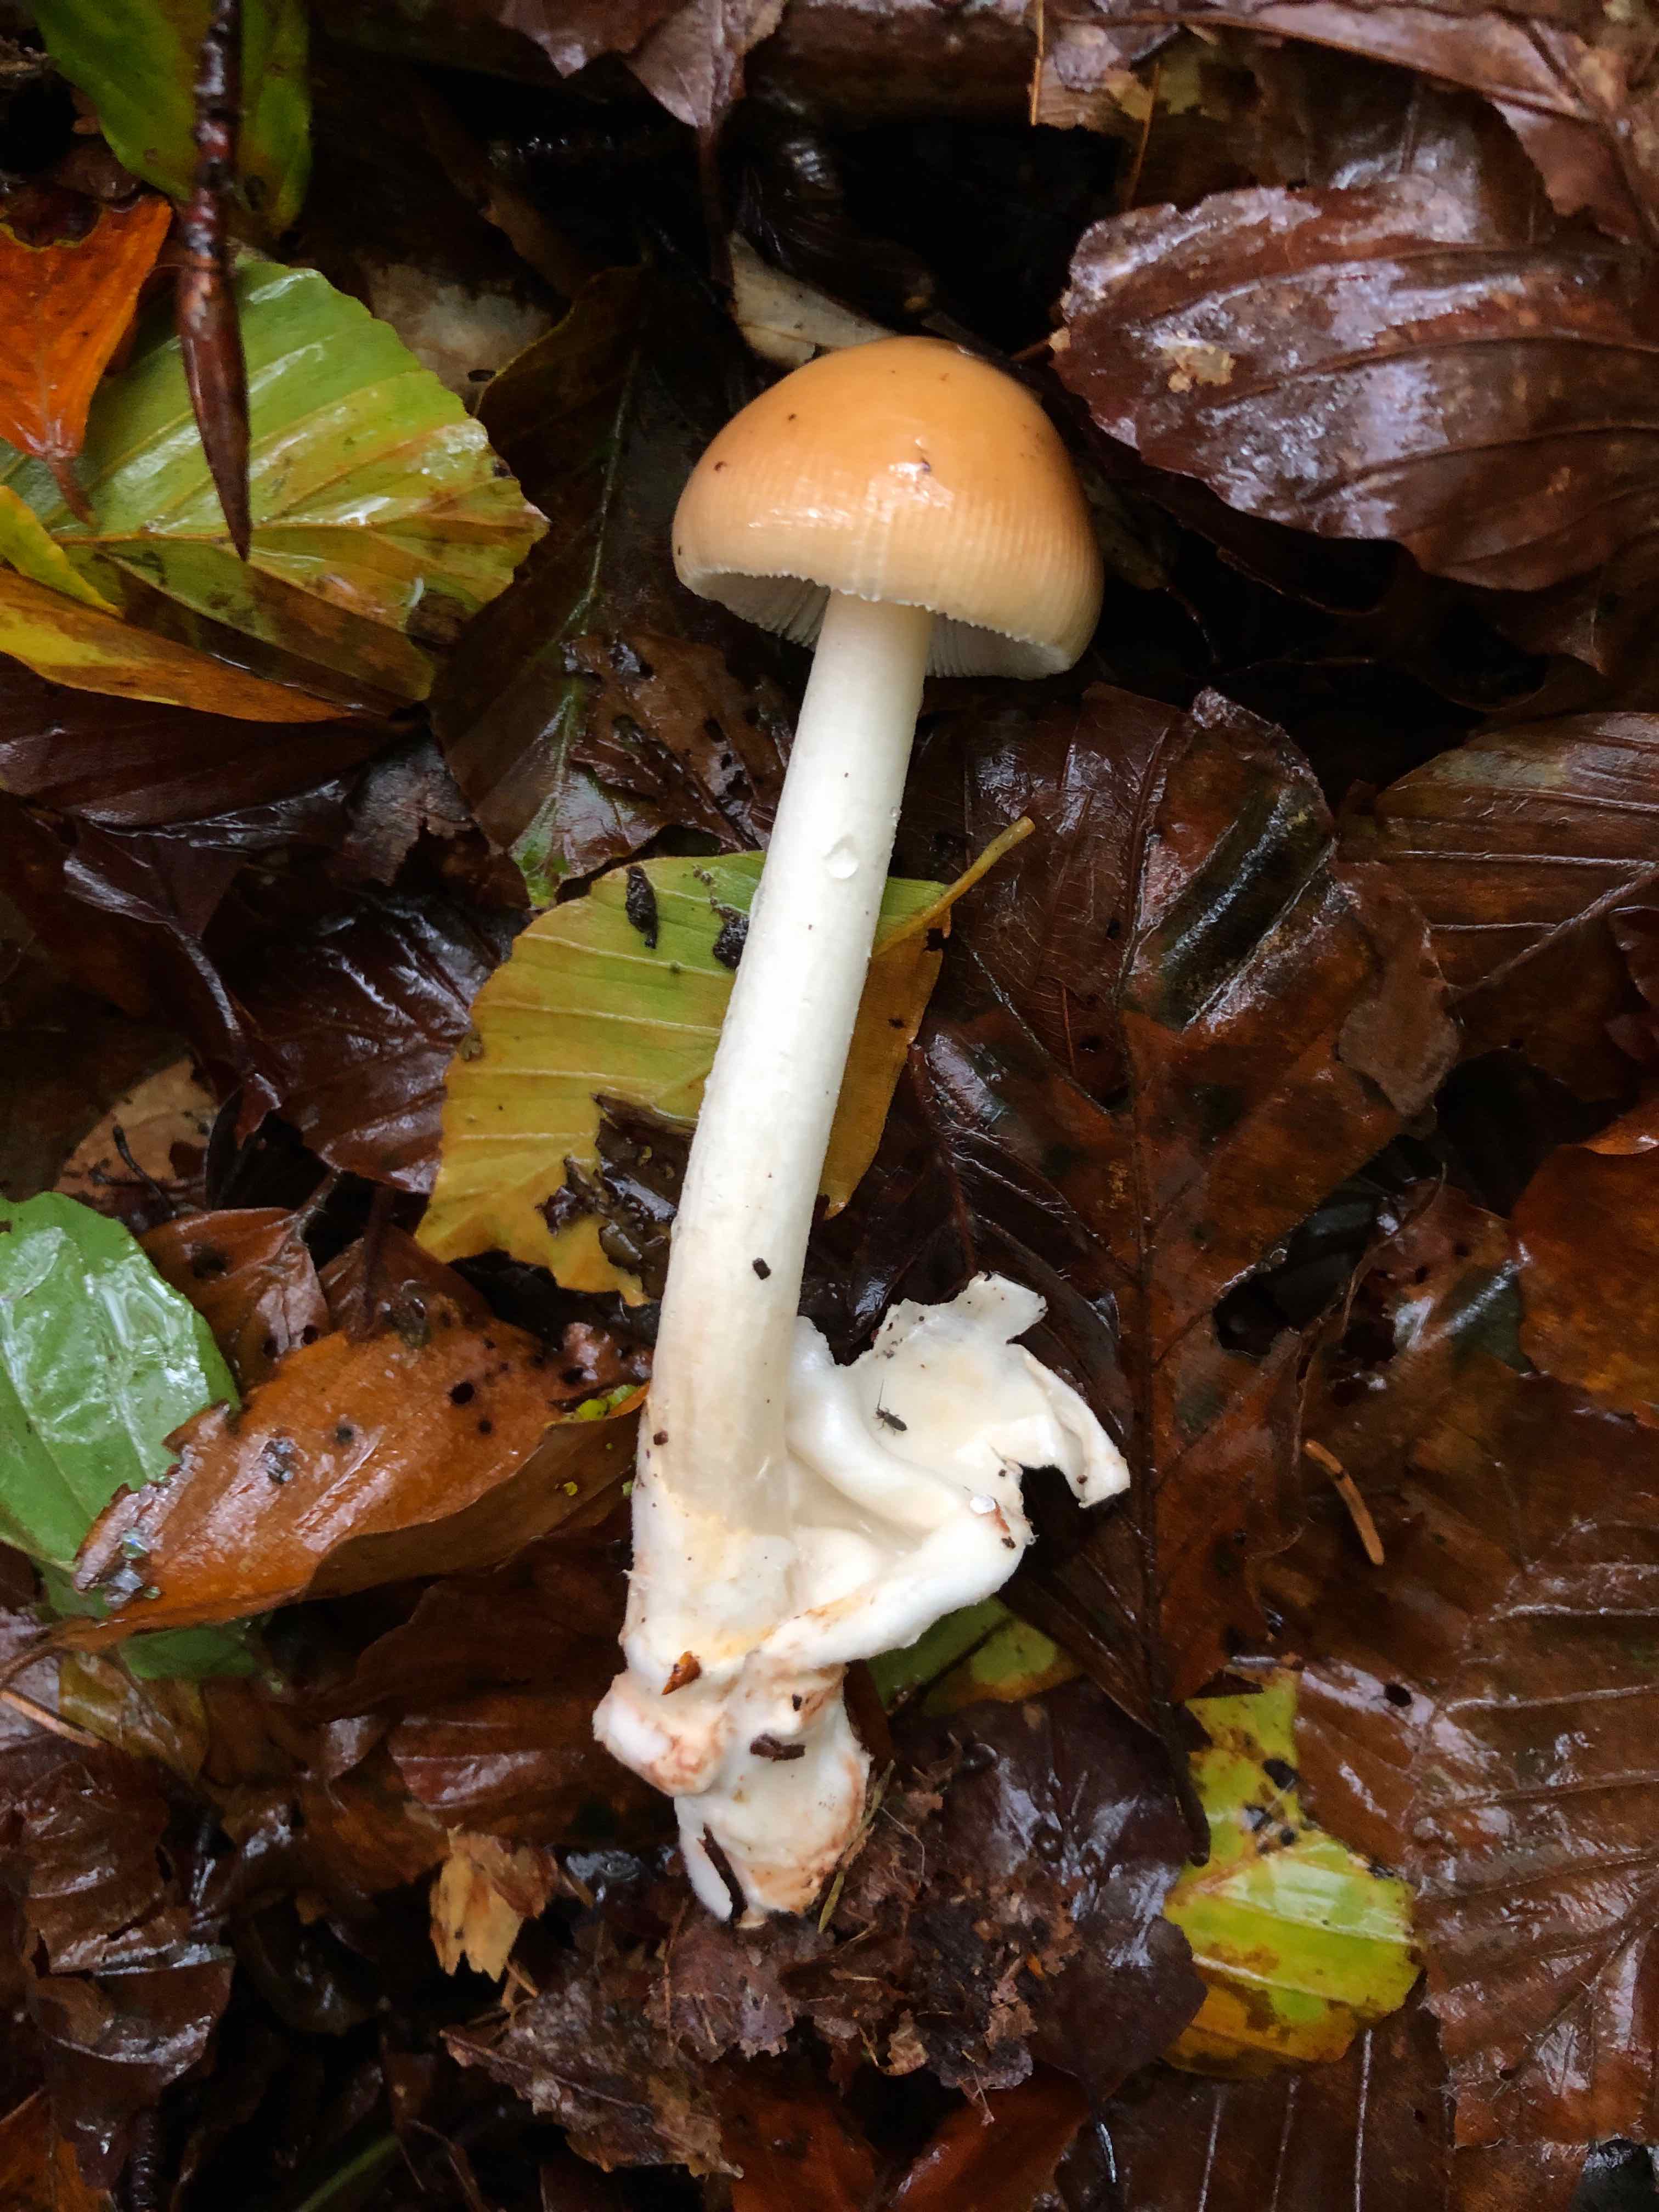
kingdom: Fungi
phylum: Basidiomycota
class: Agaricomycetes
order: Agaricales
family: Amanitaceae
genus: Amanita
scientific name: Amanita fulva
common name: brun kam-fluesvamp
